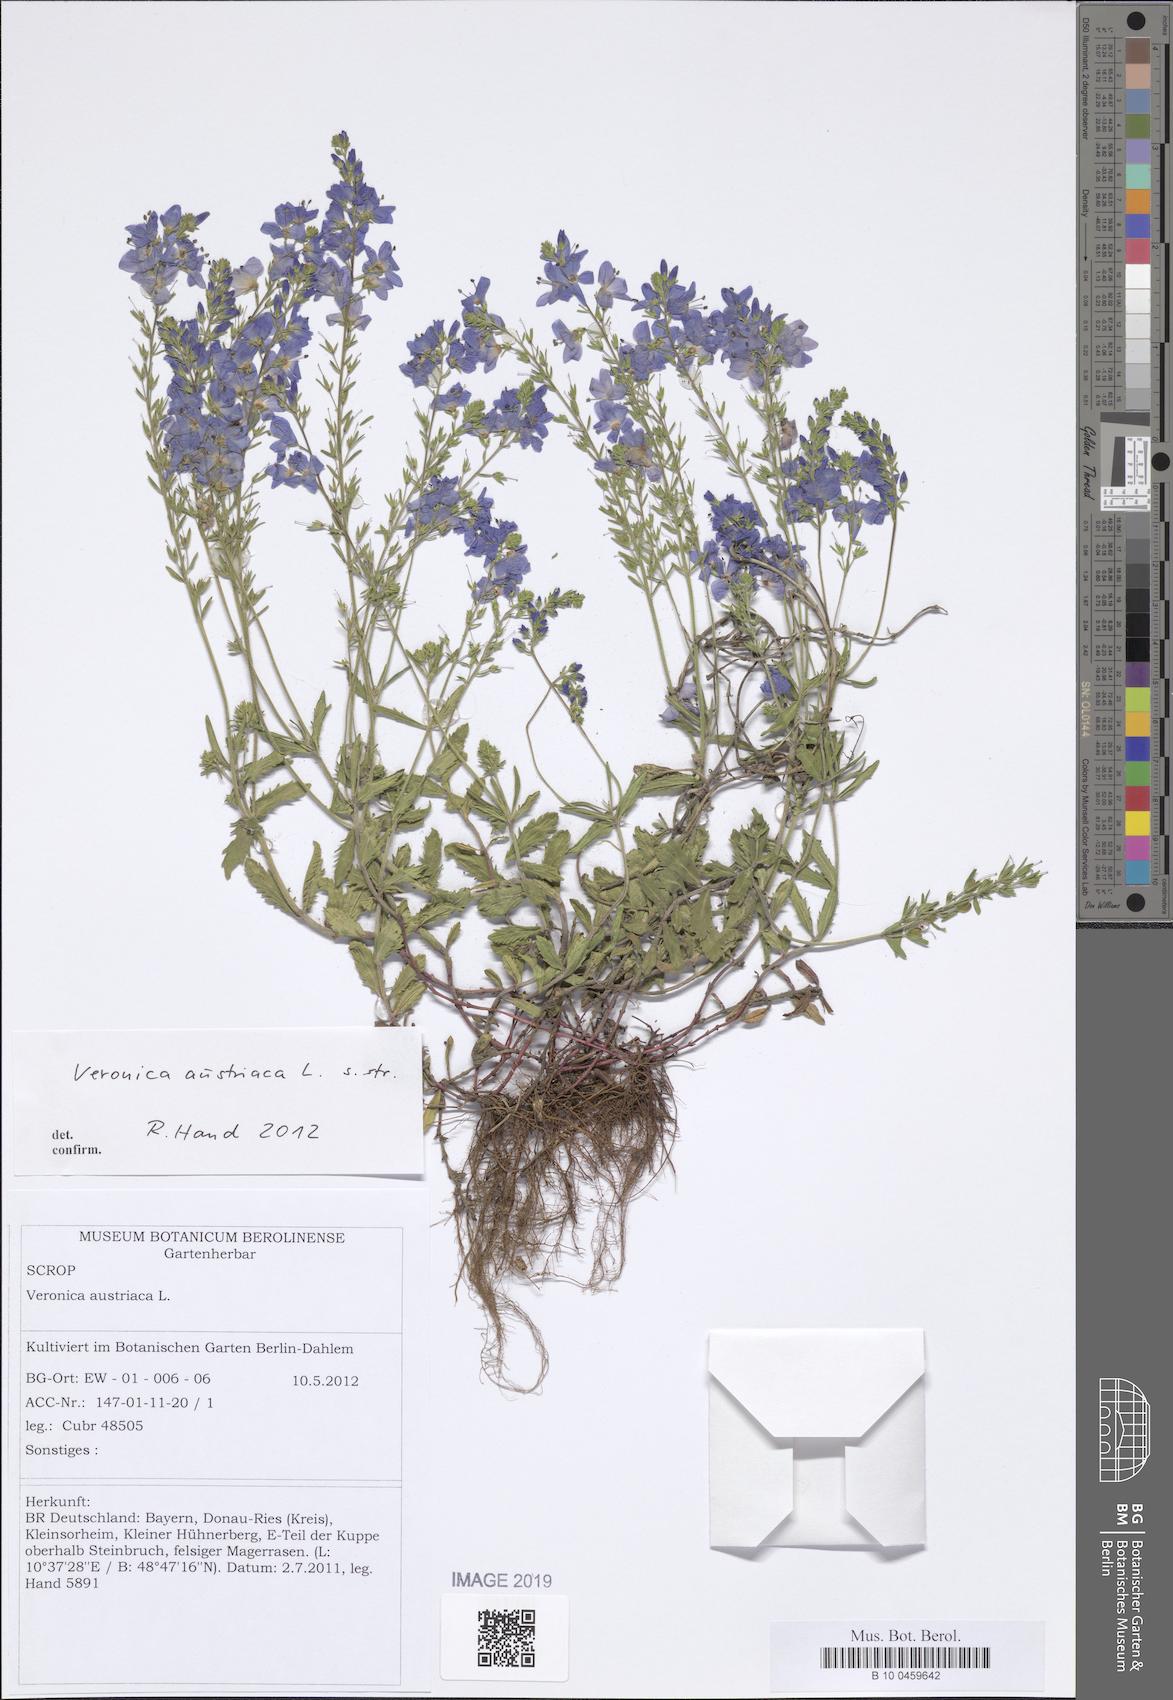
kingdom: Plantae
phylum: Tracheophyta
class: Magnoliopsida
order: Lamiales
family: Plantaginaceae
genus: Veronica
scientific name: Veronica austriaca
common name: Large speedwell
